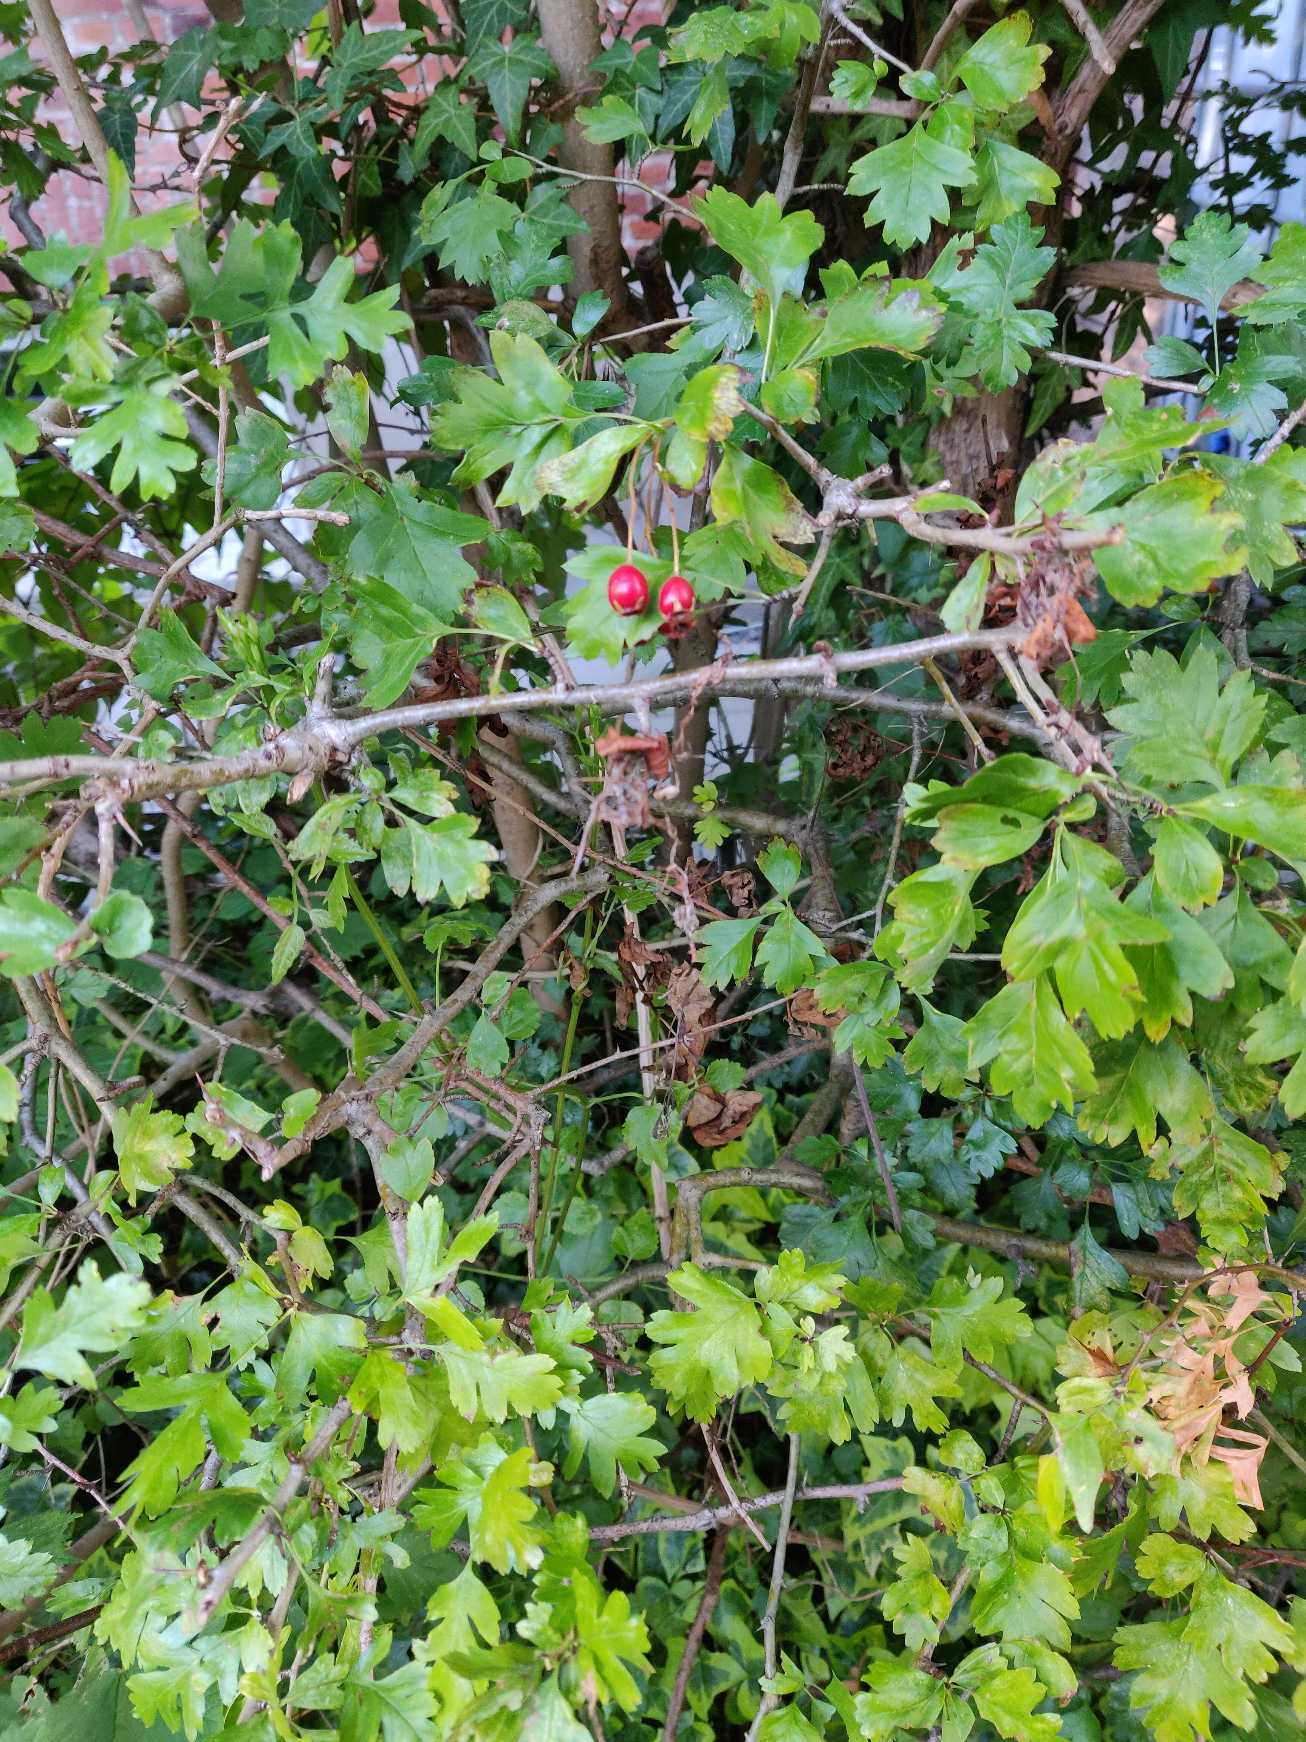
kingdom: Plantae
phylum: Tracheophyta
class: Magnoliopsida
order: Rosales
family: Rosaceae
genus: Crataegus
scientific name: Crataegus monogyna
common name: Engriflet hvidtjørn
